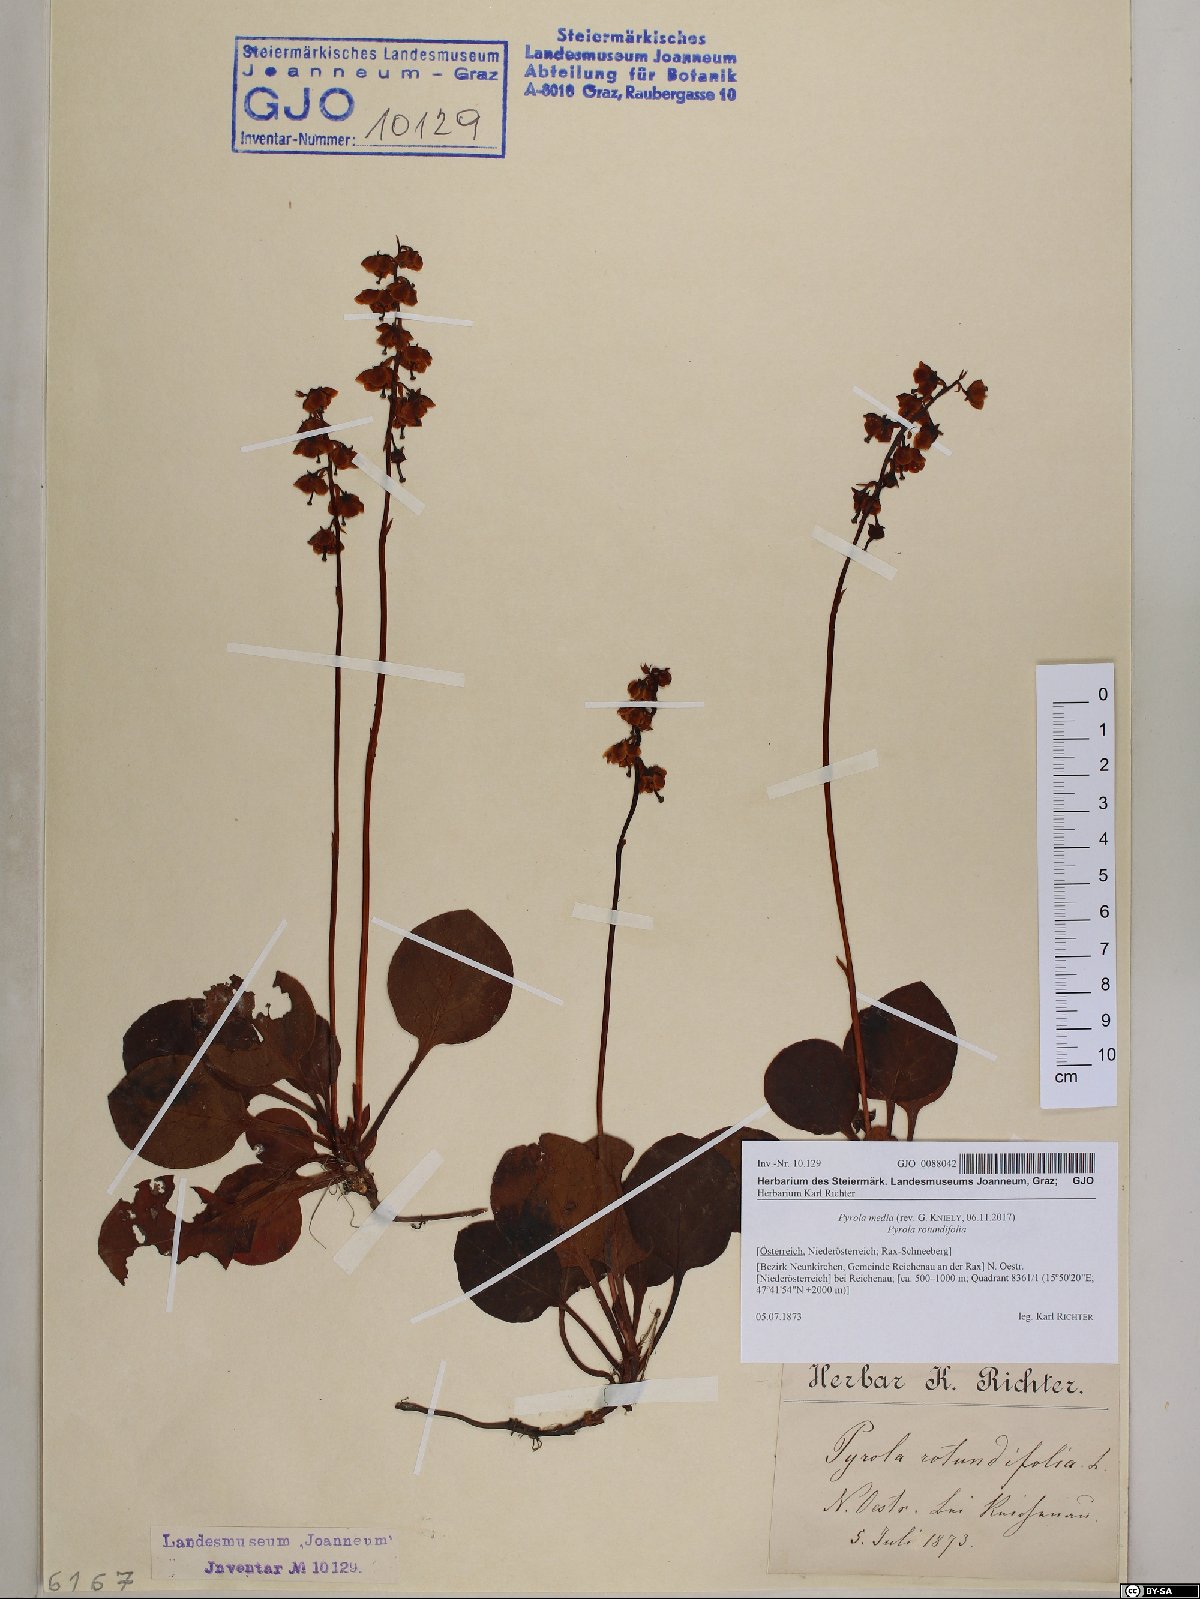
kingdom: Plantae
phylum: Tracheophyta
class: Magnoliopsida
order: Ericales
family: Ericaceae
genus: Pyrola
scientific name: Pyrola media
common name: Intermediate wintergreen
